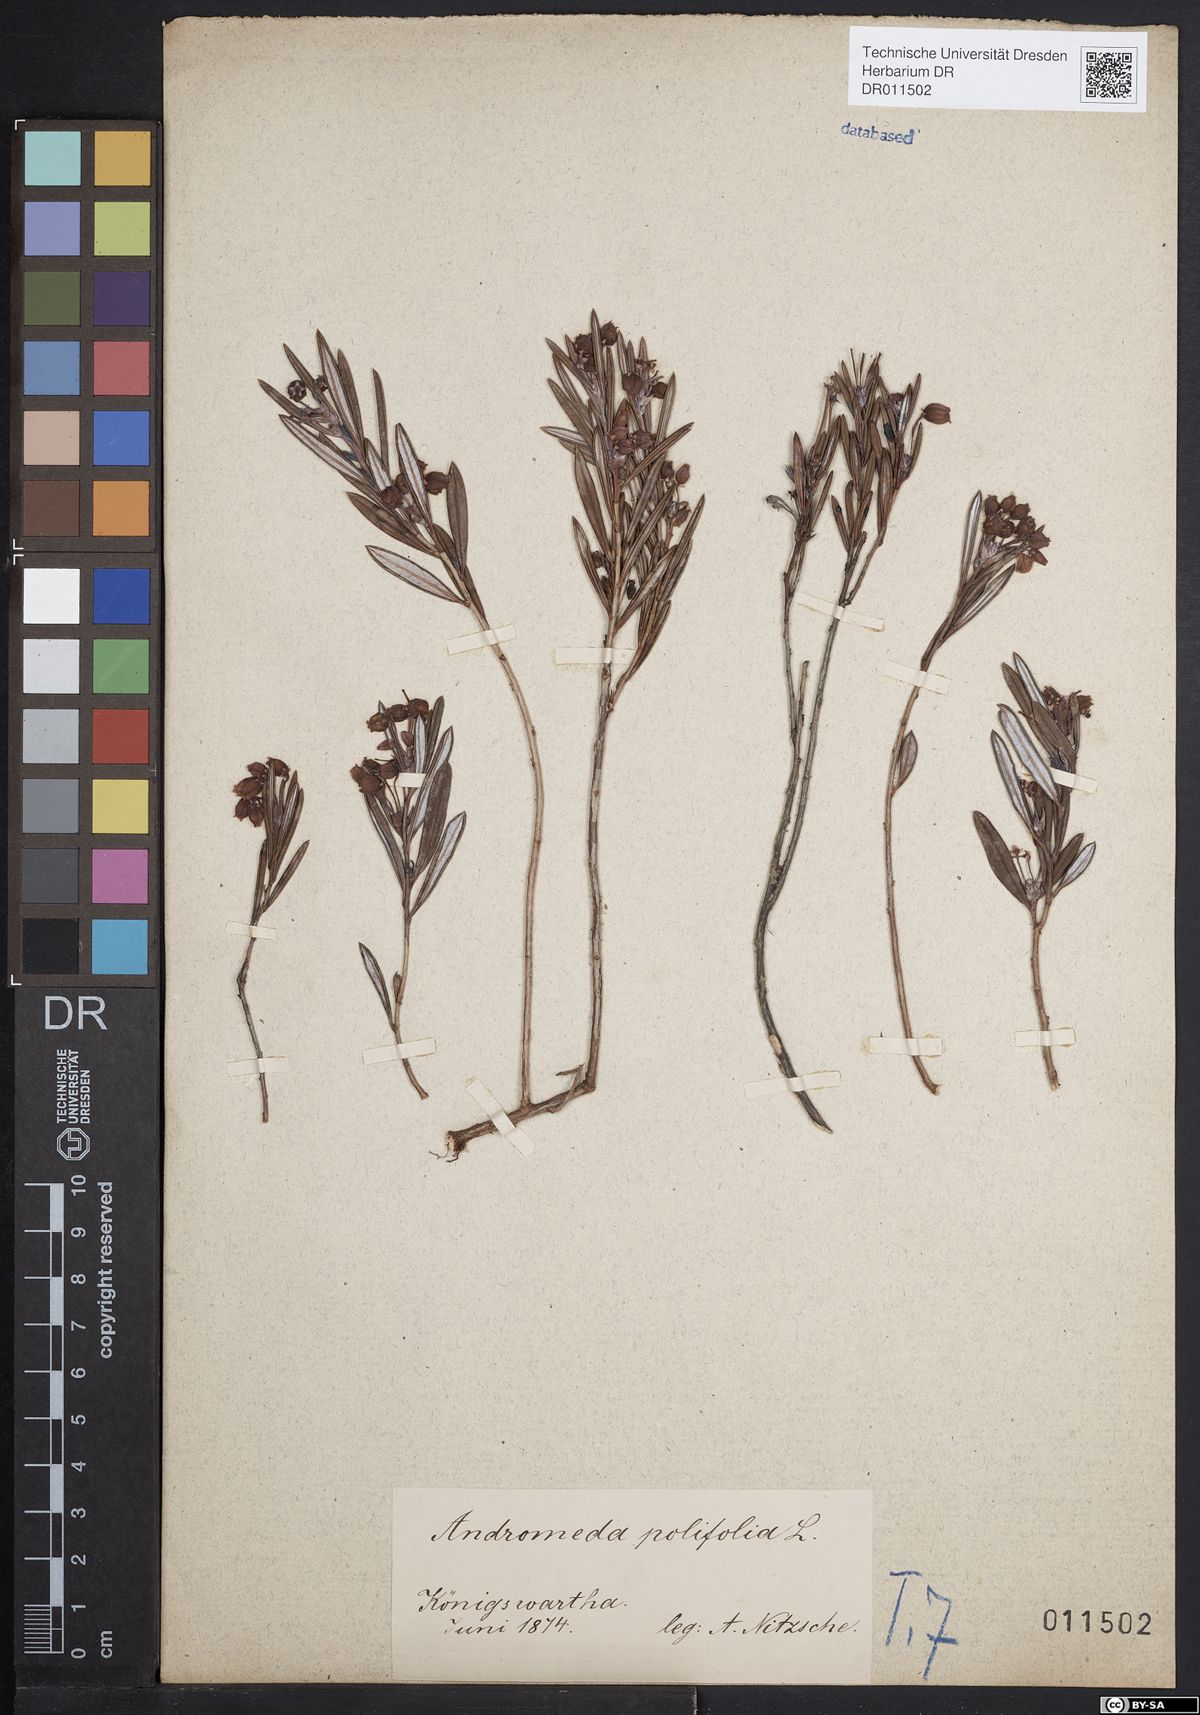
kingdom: Plantae
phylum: Tracheophyta
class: Magnoliopsida
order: Ericales
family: Ericaceae
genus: Andromeda
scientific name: Andromeda polifolia
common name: Bog-rosemary
